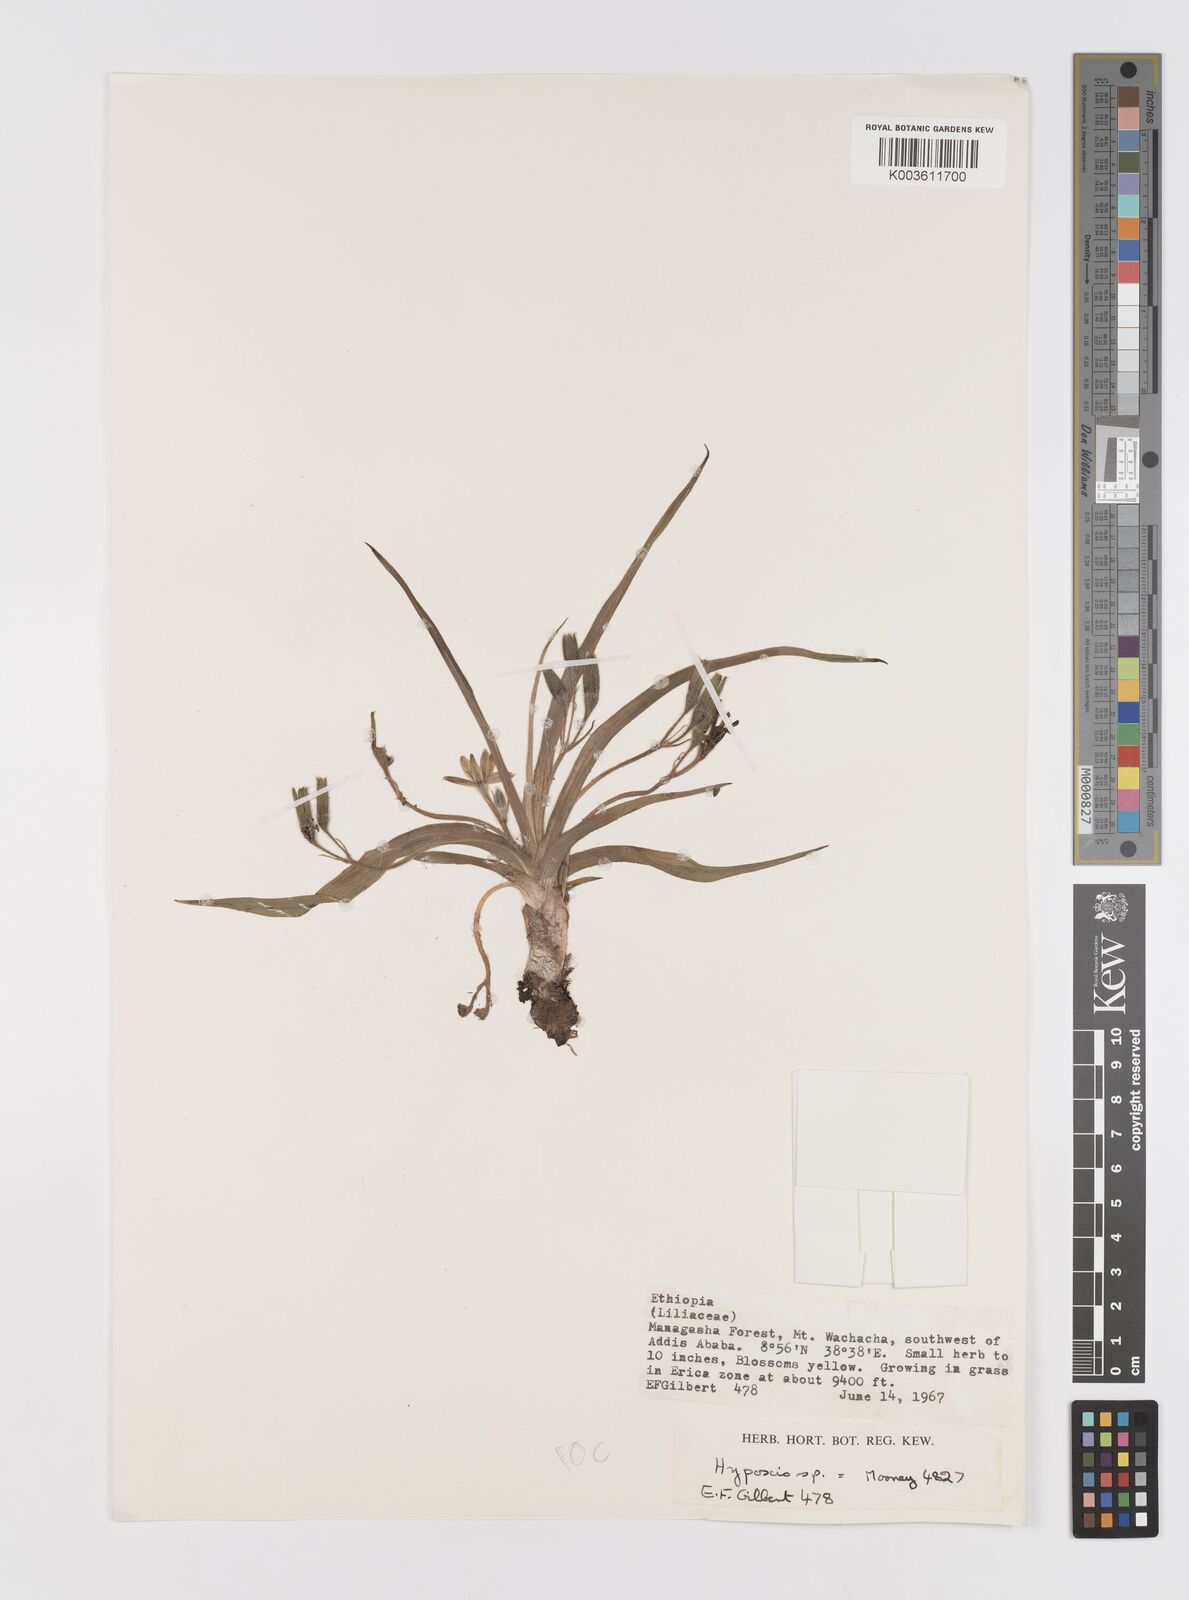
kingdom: Plantae
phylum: Tracheophyta
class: Liliopsida
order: Asparagales
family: Hypoxidaceae
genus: Hypoxis
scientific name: Hypoxis
